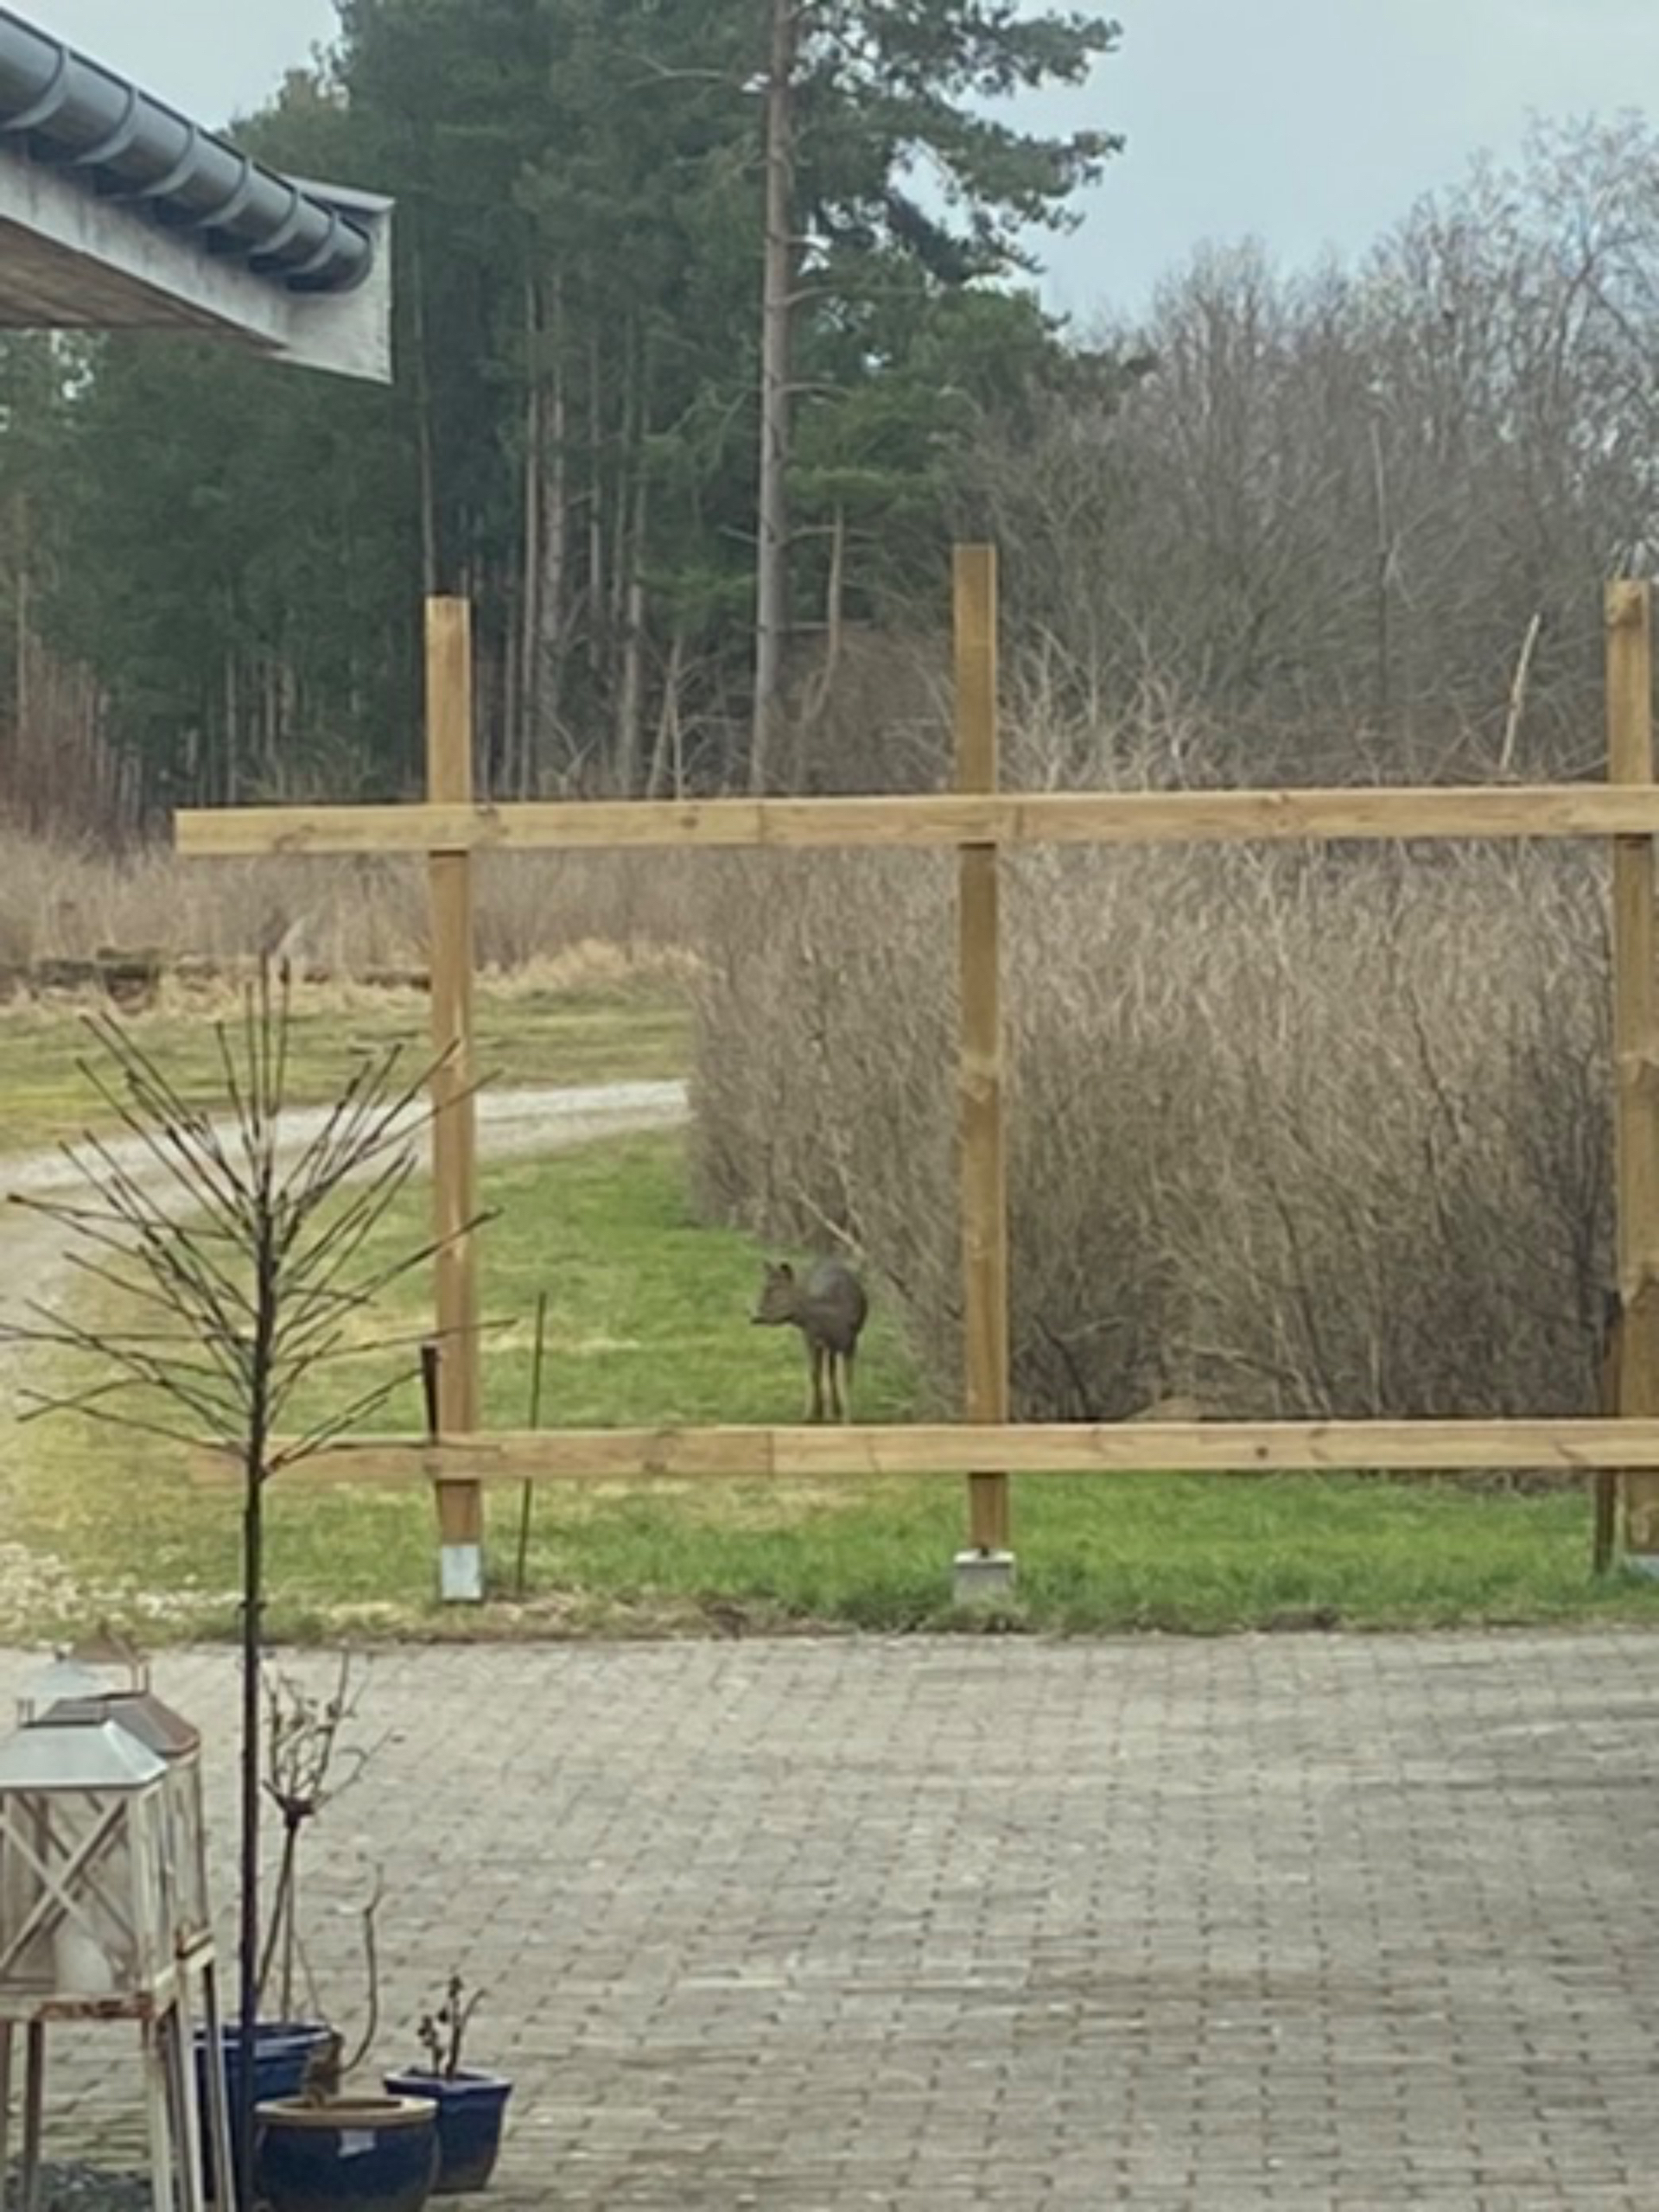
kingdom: Animalia
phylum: Chordata
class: Mammalia
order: Artiodactyla
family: Cervidae
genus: Capreolus
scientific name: Capreolus capreolus
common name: Rådyr
